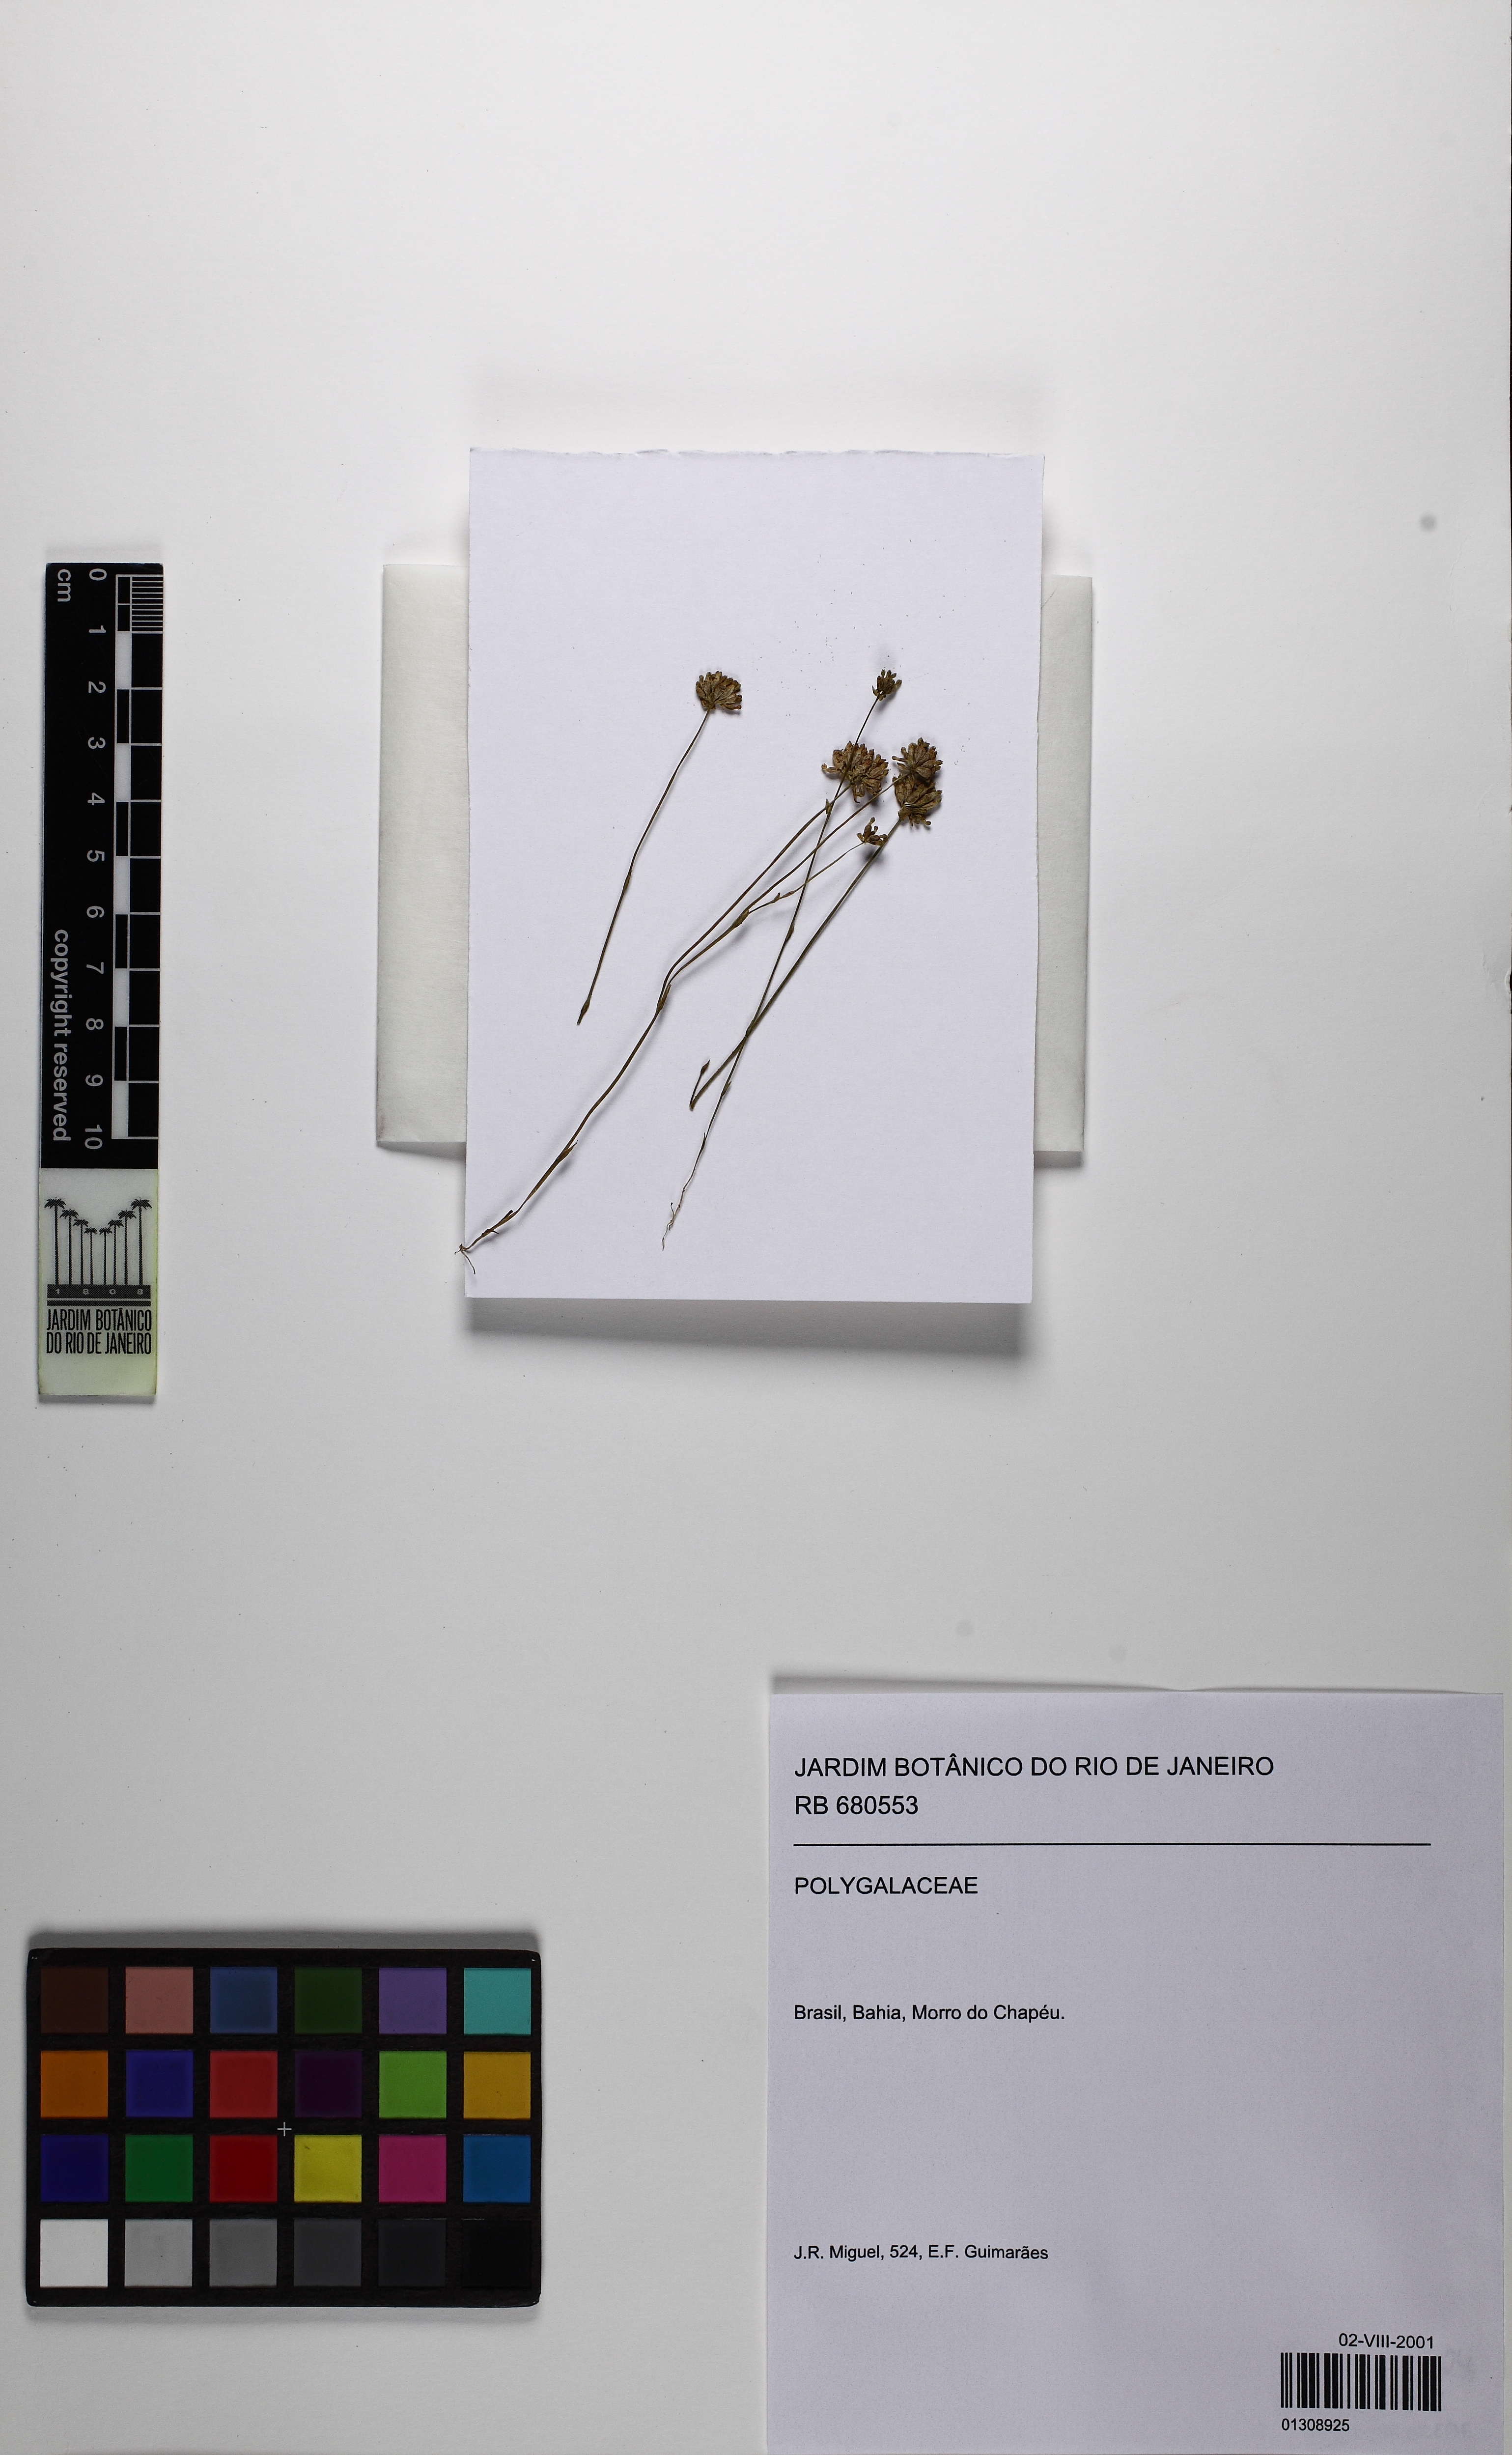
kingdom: Plantae
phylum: Tracheophyta
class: Liliopsida
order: Dioscoreales
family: Burmanniaceae
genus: Burmannia
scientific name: Burmannia capitata
